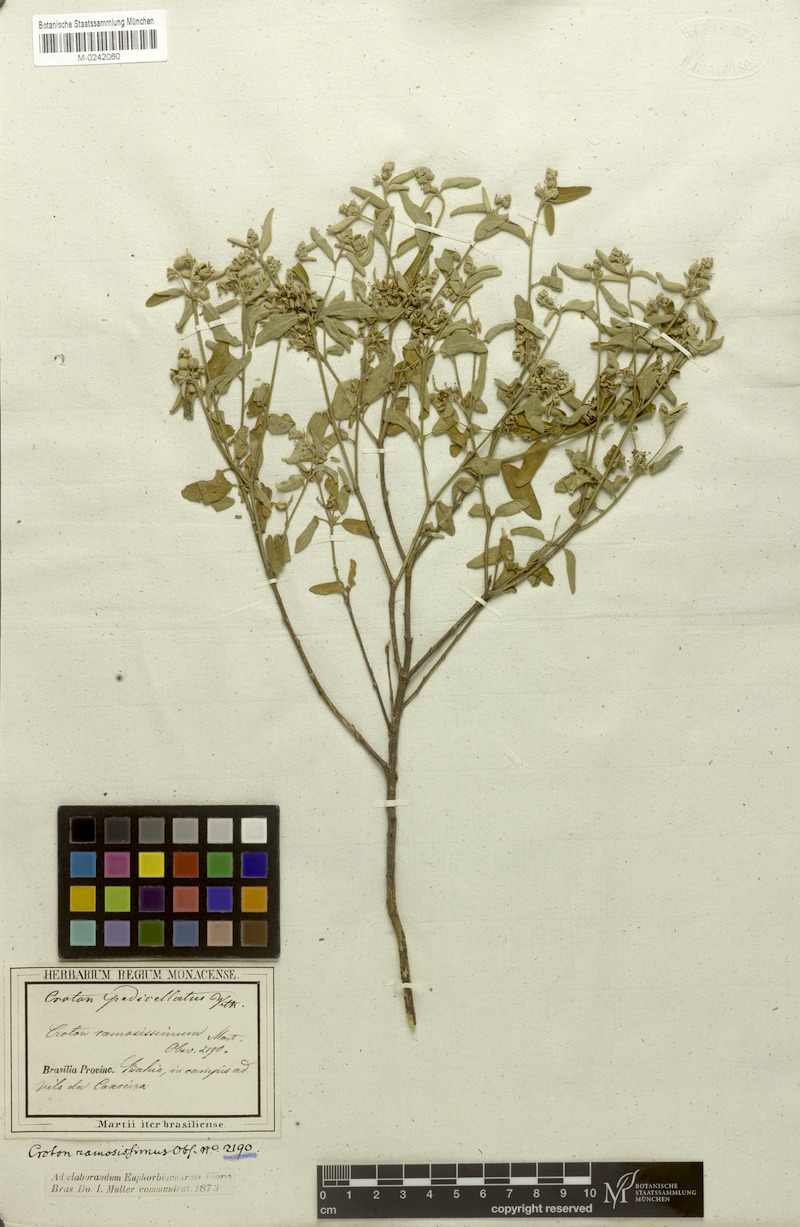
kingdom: Plantae
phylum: Tracheophyta
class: Magnoliopsida
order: Malpighiales
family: Euphorbiaceae
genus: Croton
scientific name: Croton pedicellatus
